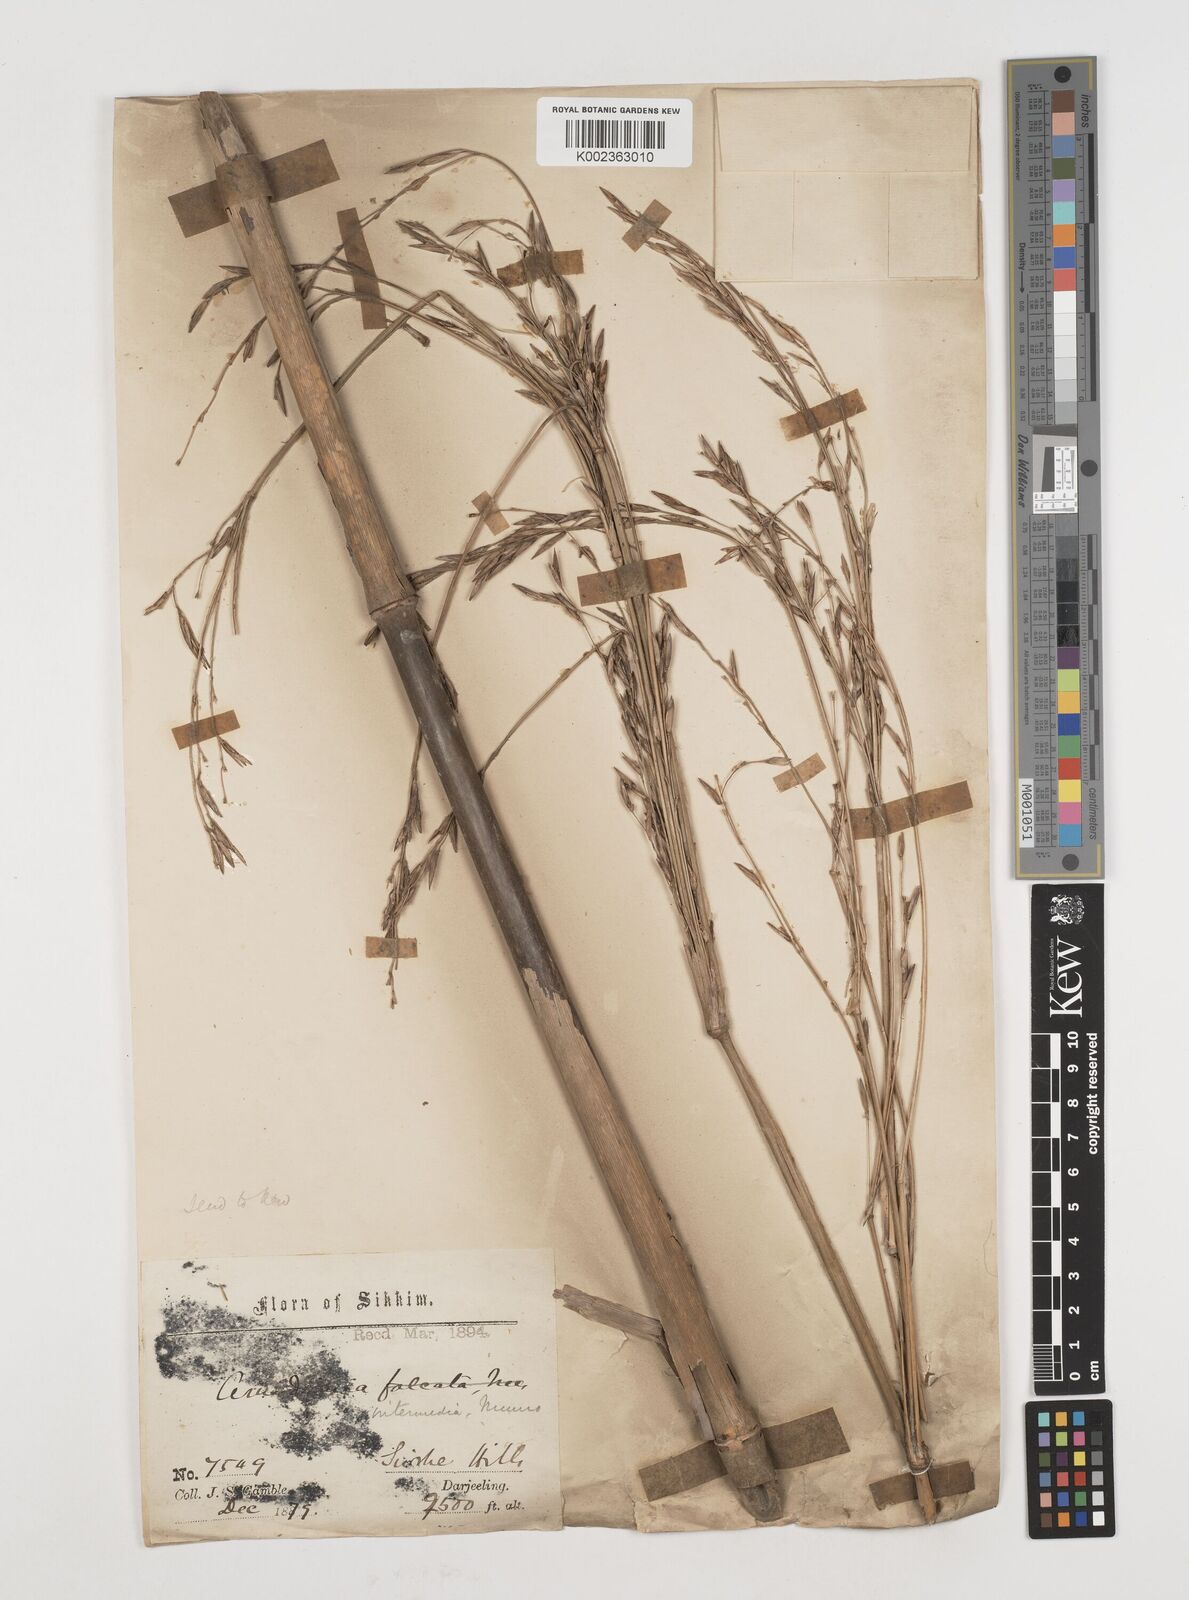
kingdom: Plantae
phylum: Tracheophyta
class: Liliopsida
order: Poales
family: Poaceae
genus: Drepanostachyum
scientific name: Drepanostachyum
